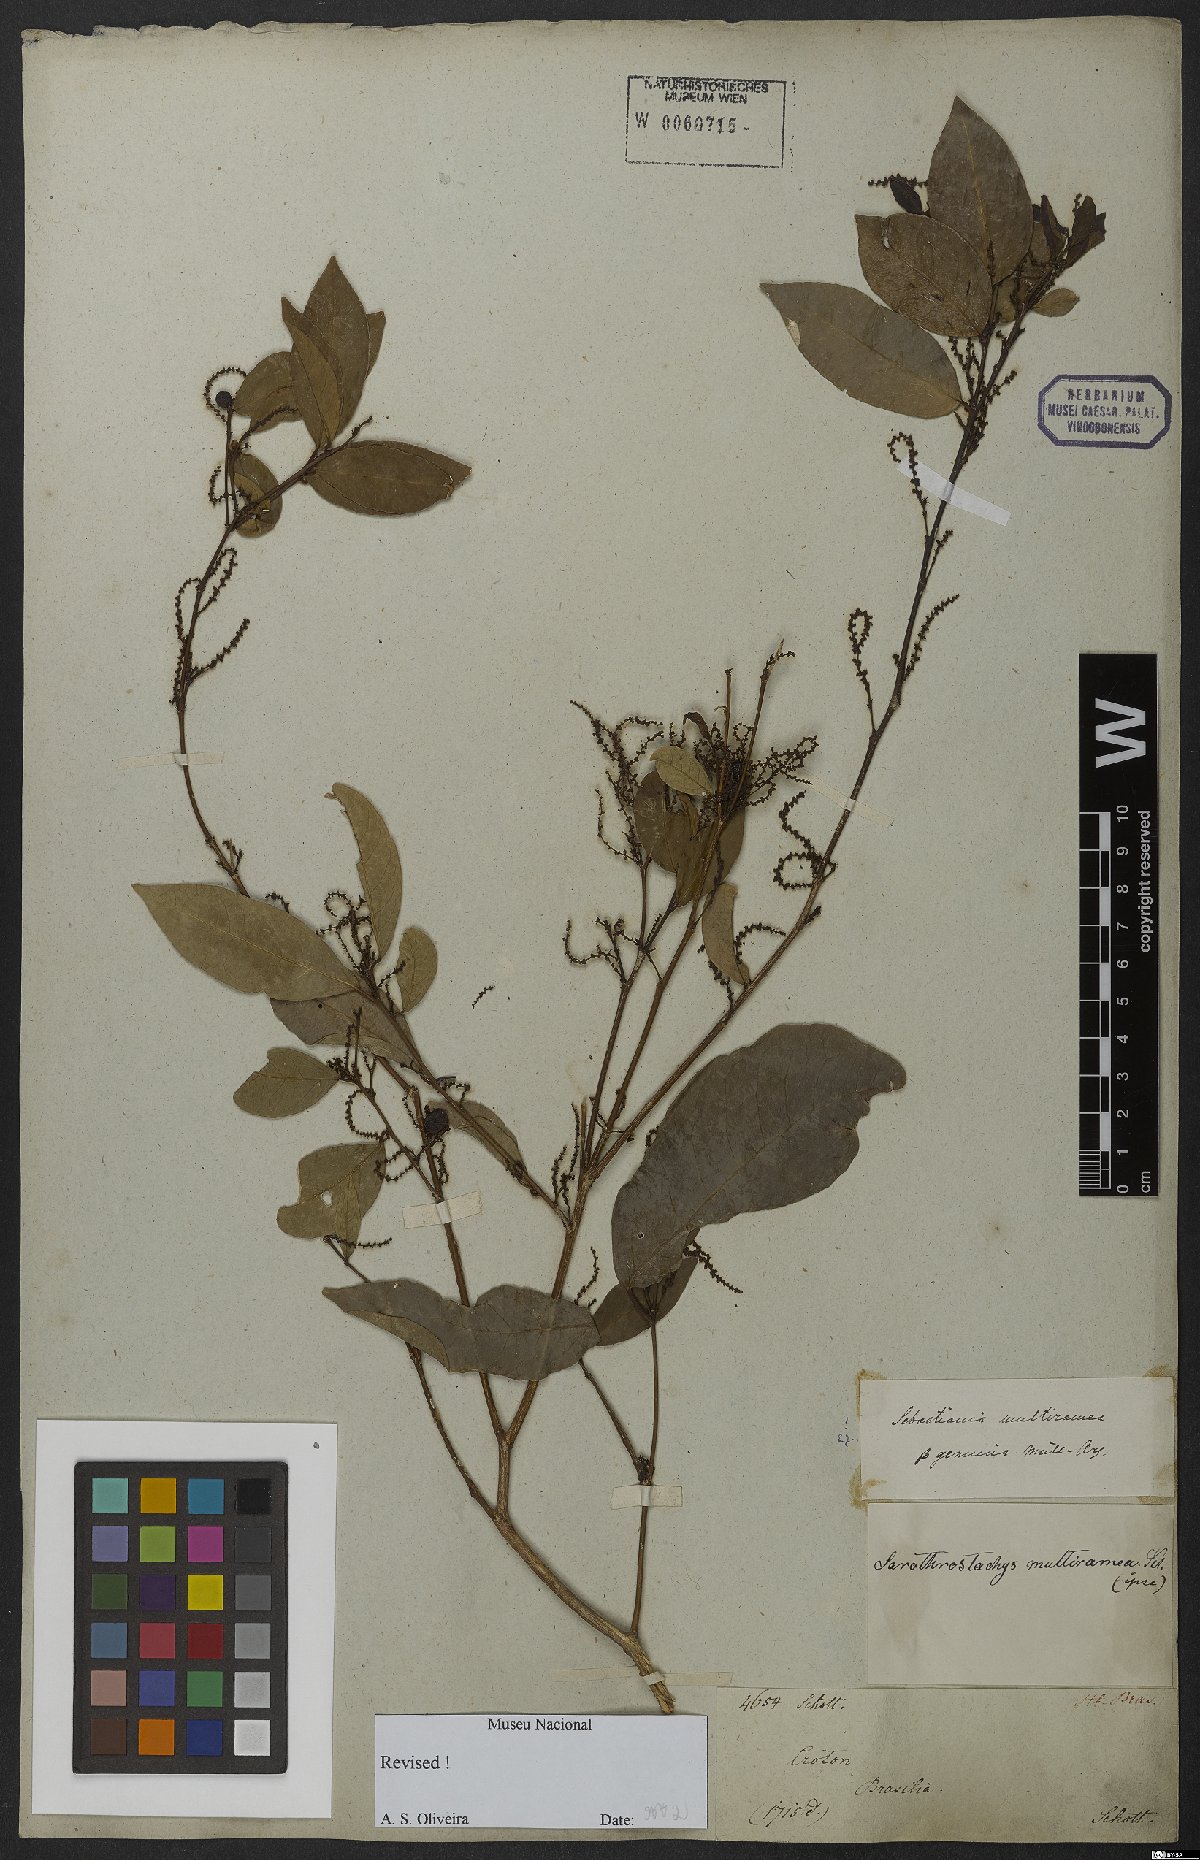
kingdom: Plantae
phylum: Tracheophyta
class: Magnoliopsida
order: Malpighiales
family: Euphorbiaceae
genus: Gymnanthes
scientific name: Gymnanthes glabrata
